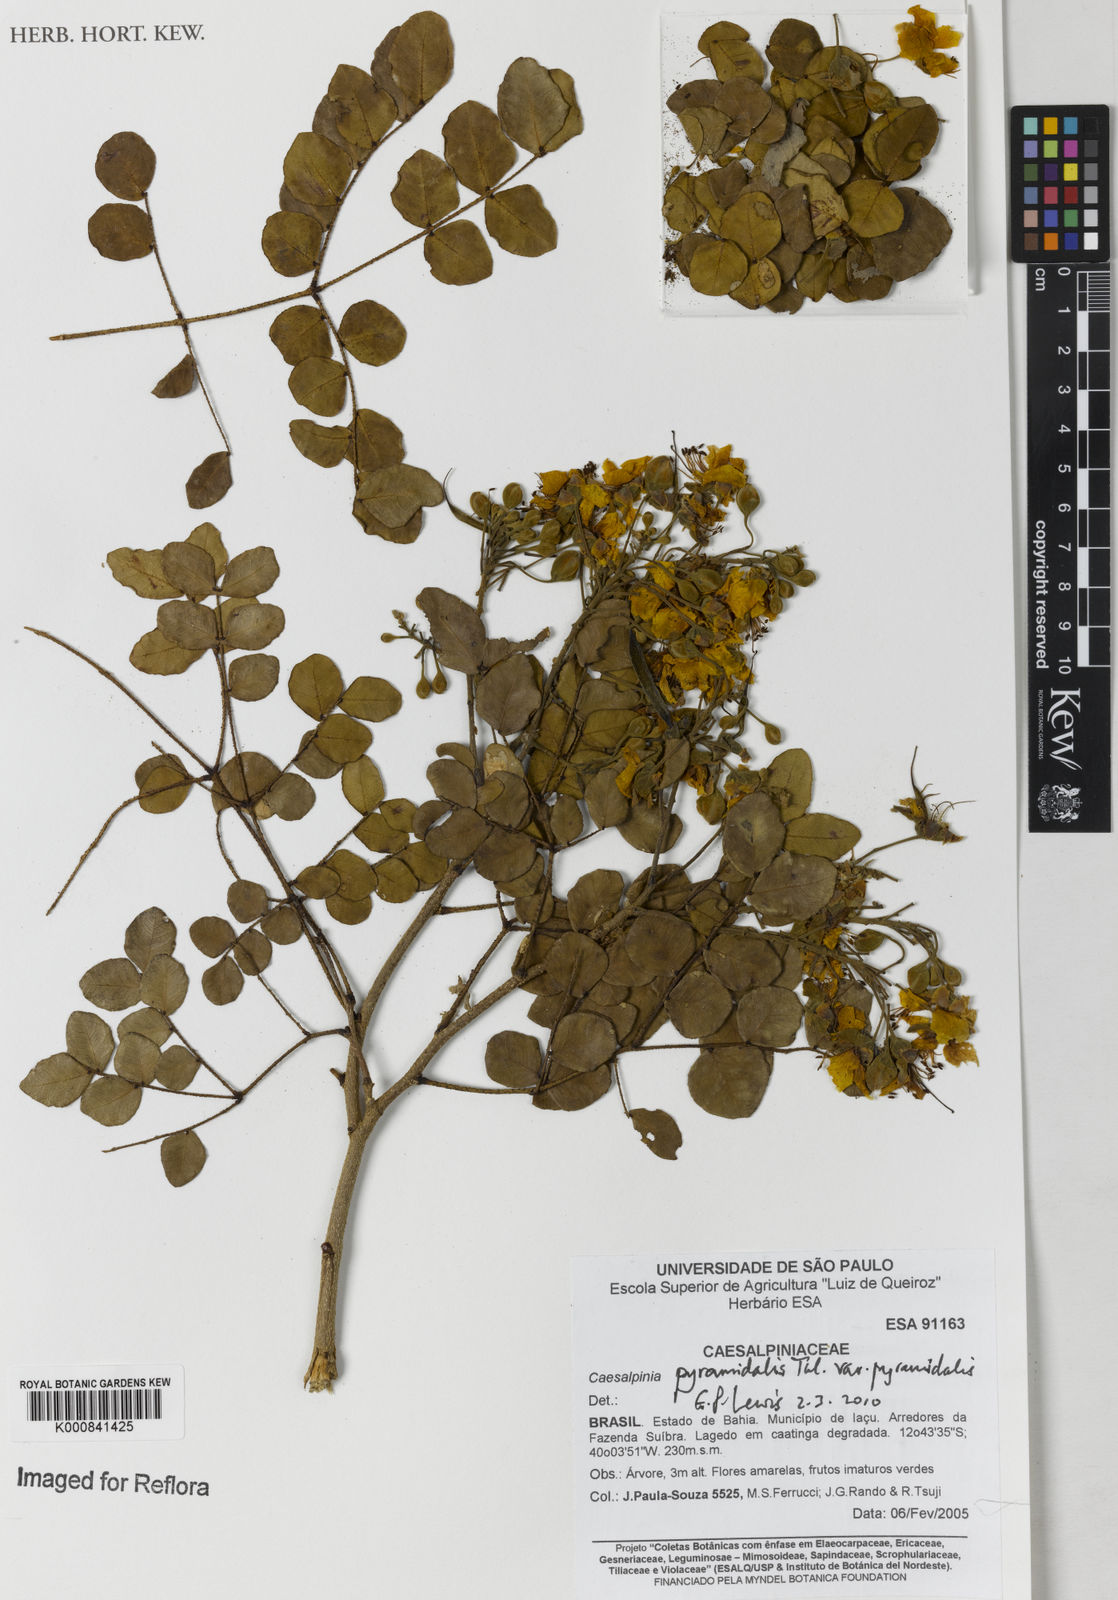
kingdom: Plantae
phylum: Tracheophyta
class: Magnoliopsida
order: Fabales
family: Fabaceae
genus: Cenostigma
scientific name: Cenostigma pyramidale
